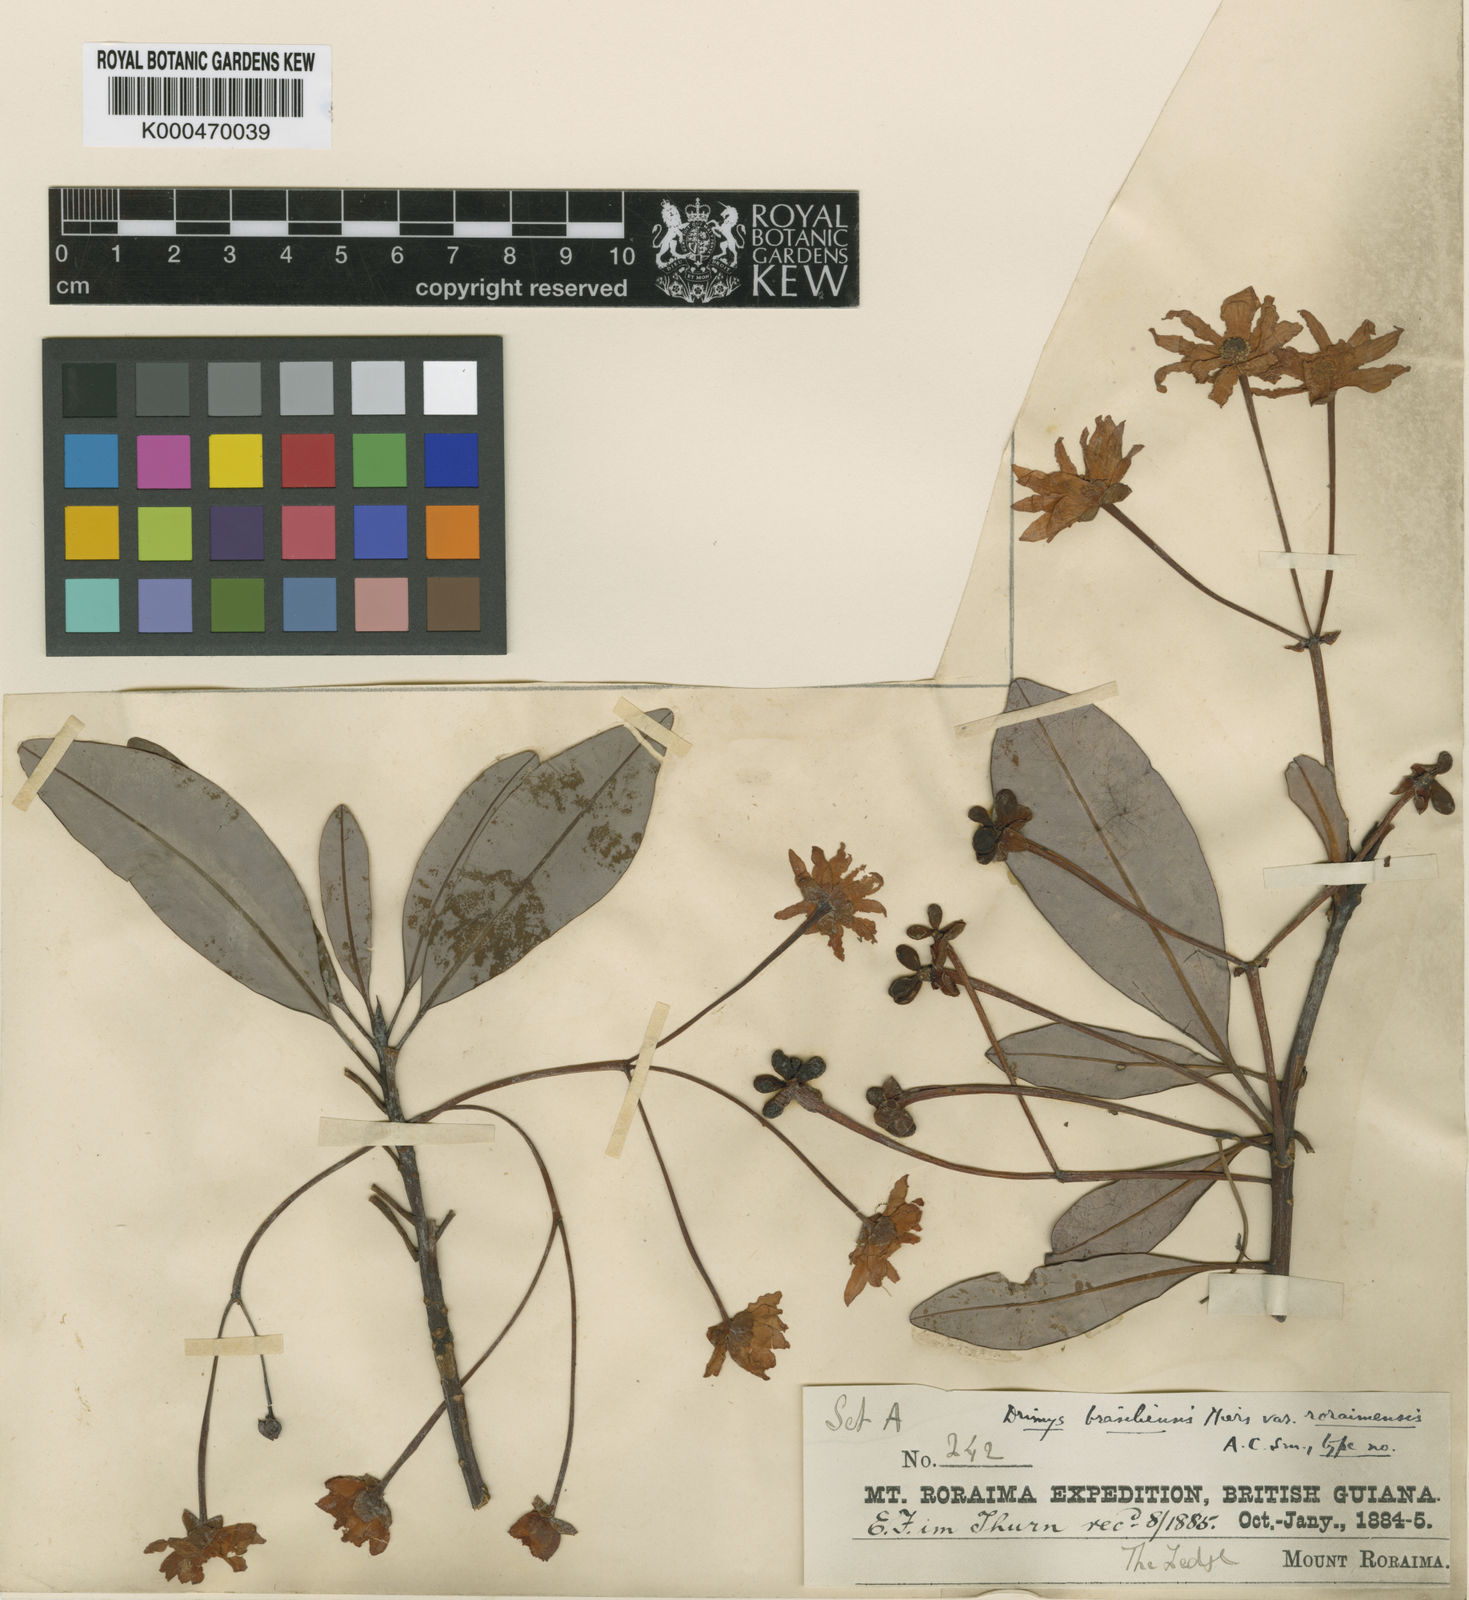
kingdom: Plantae
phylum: Tracheophyta
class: Magnoliopsida
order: Canellales
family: Winteraceae
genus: Drimys
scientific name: Drimys roraimensis
